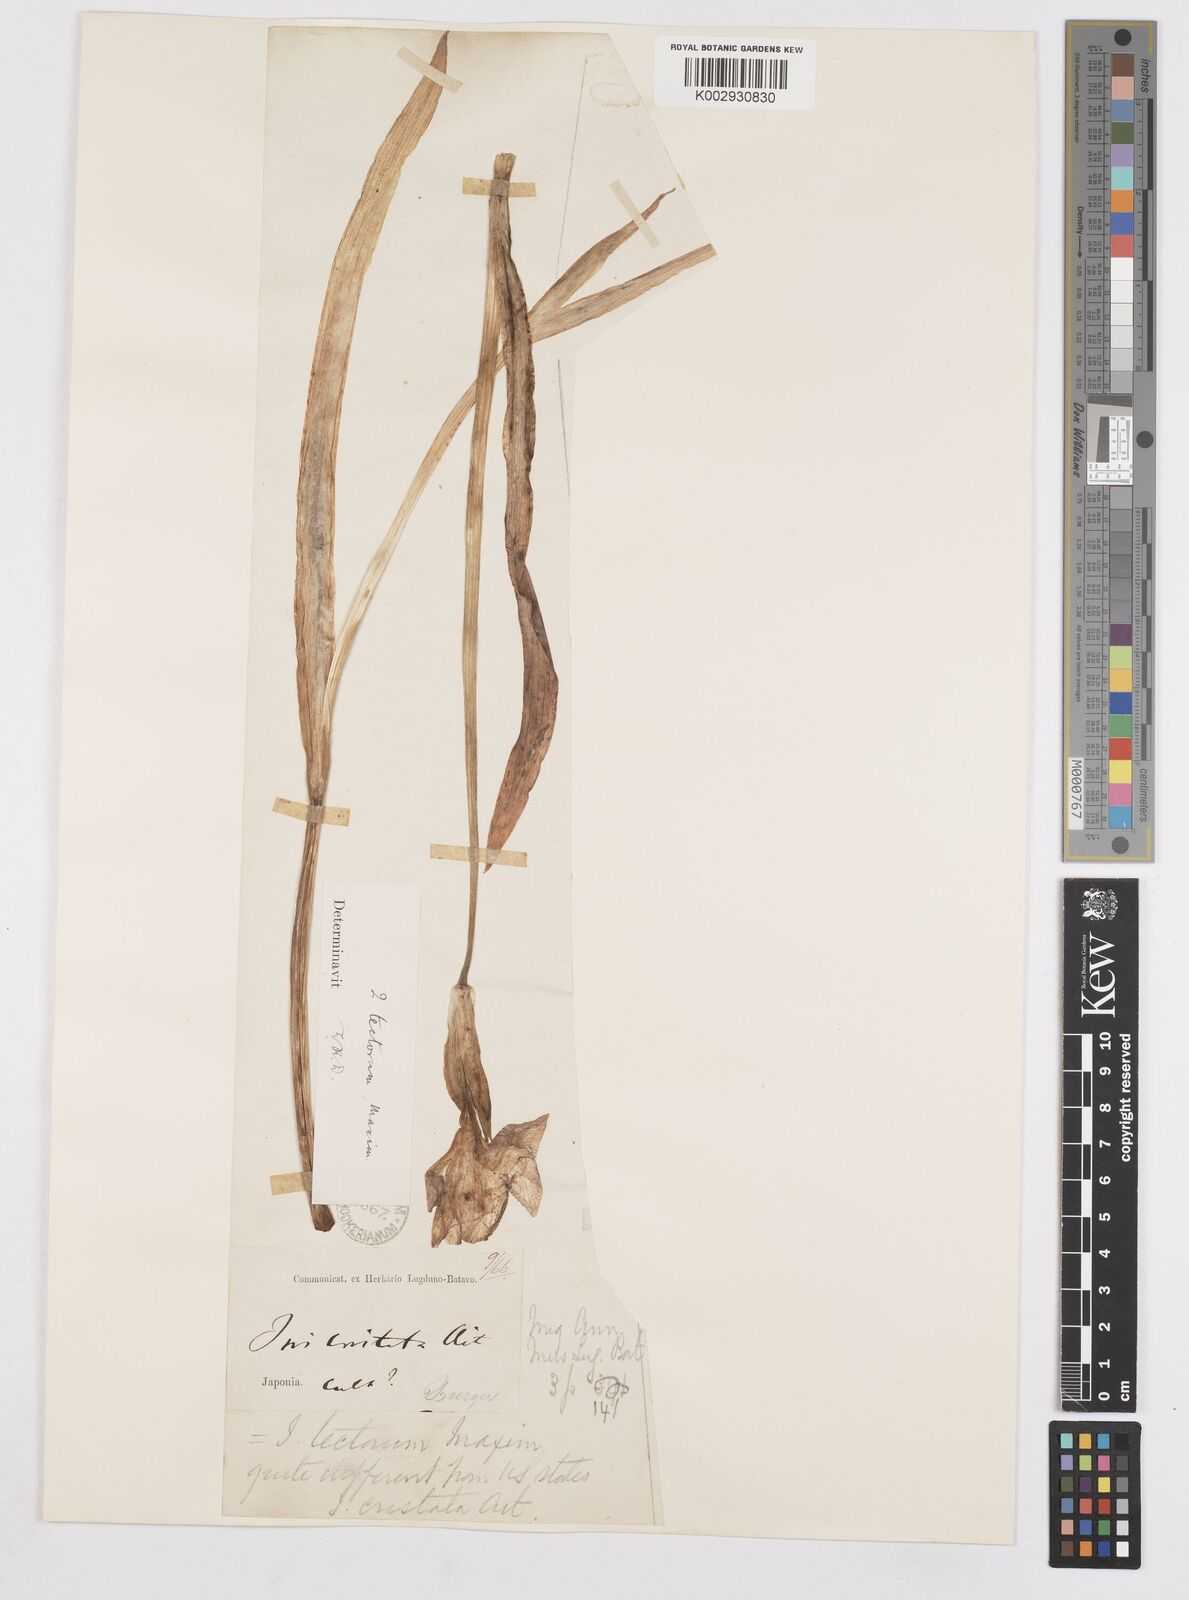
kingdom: Plantae
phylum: Tracheophyta
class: Liliopsida
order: Asparagales
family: Iridaceae
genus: Iris
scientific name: Iris tectorum
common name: Wall iris
